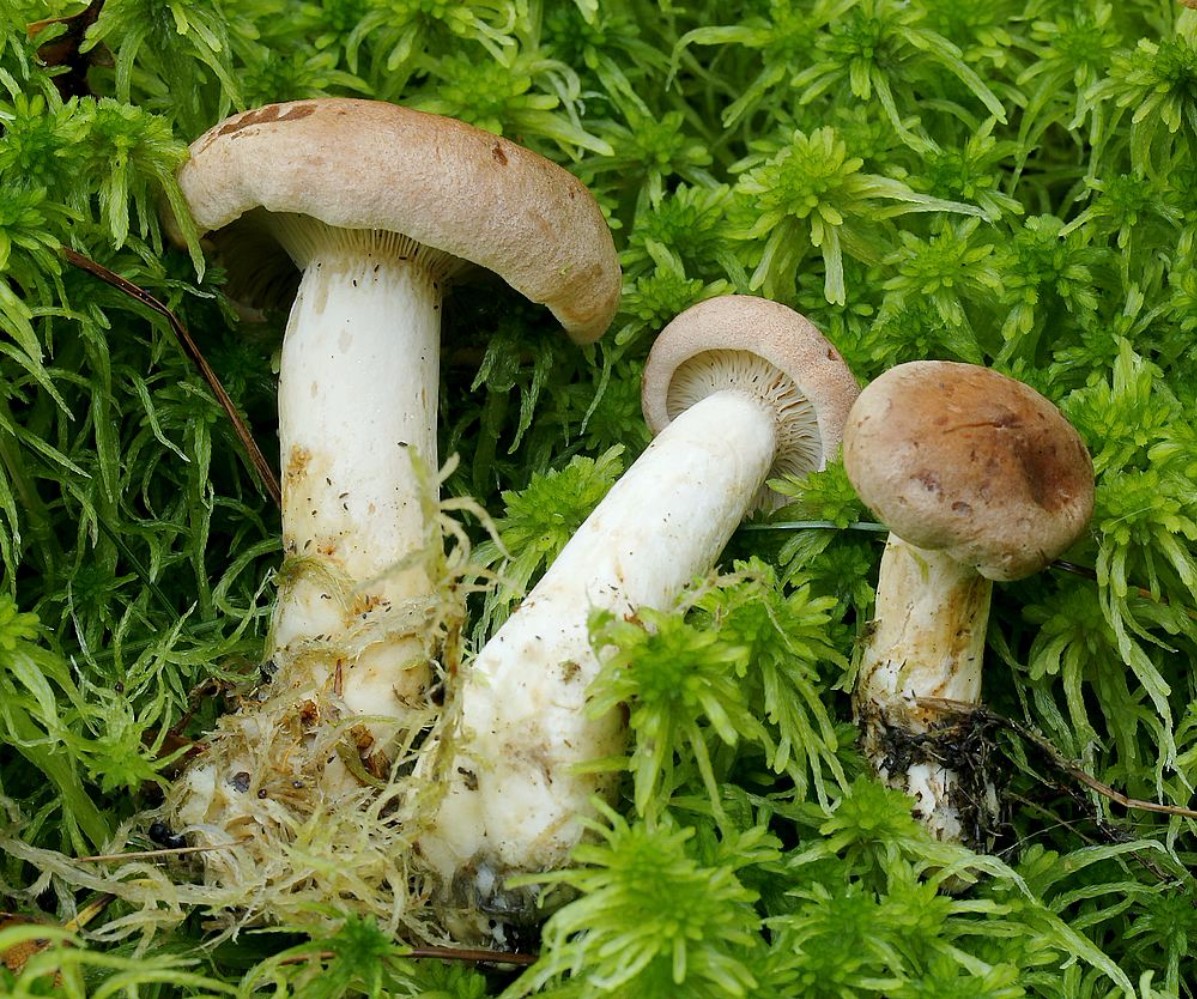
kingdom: Fungi
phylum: Basidiomycota
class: Agaricomycetes
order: Russulales
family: Russulaceae
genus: Lactarius
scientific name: Lactarius helvus
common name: mose-mælkehat
